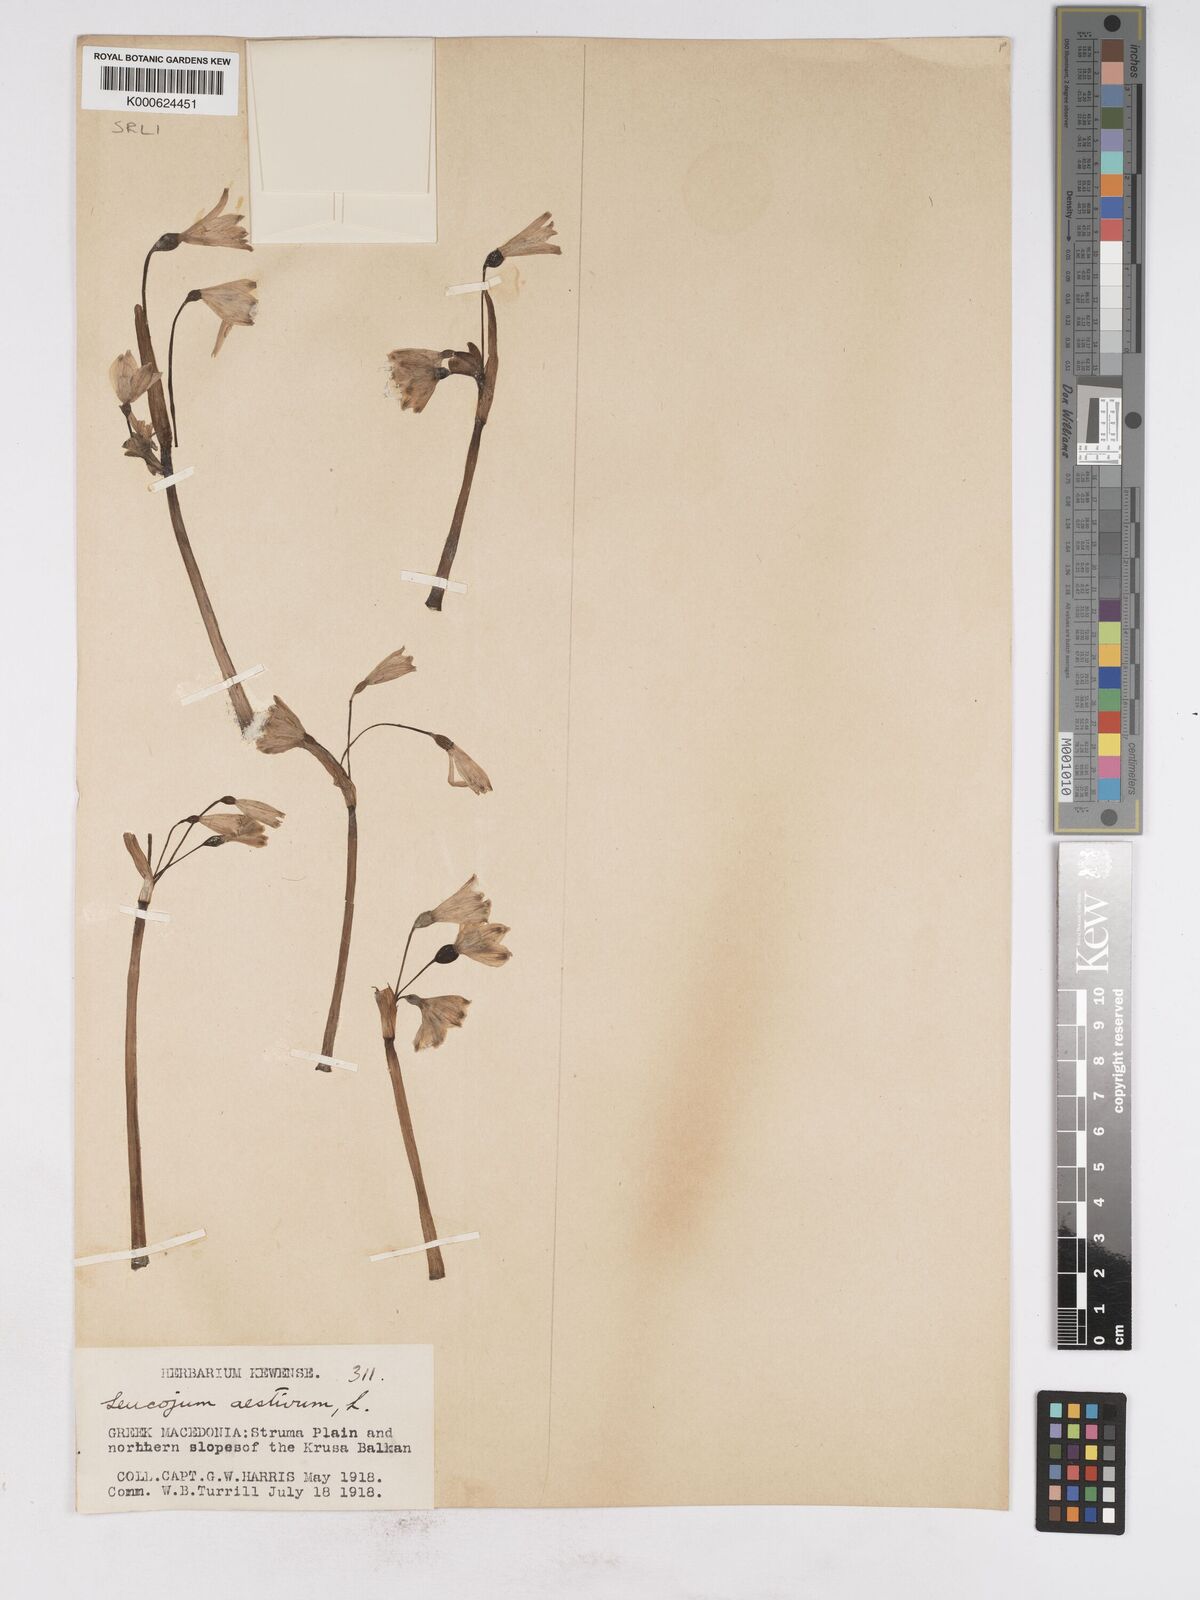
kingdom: Plantae
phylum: Tracheophyta
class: Liliopsida
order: Asparagales
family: Amaryllidaceae
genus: Leucojum
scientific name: Leucojum aestivum
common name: Summer snowflake
